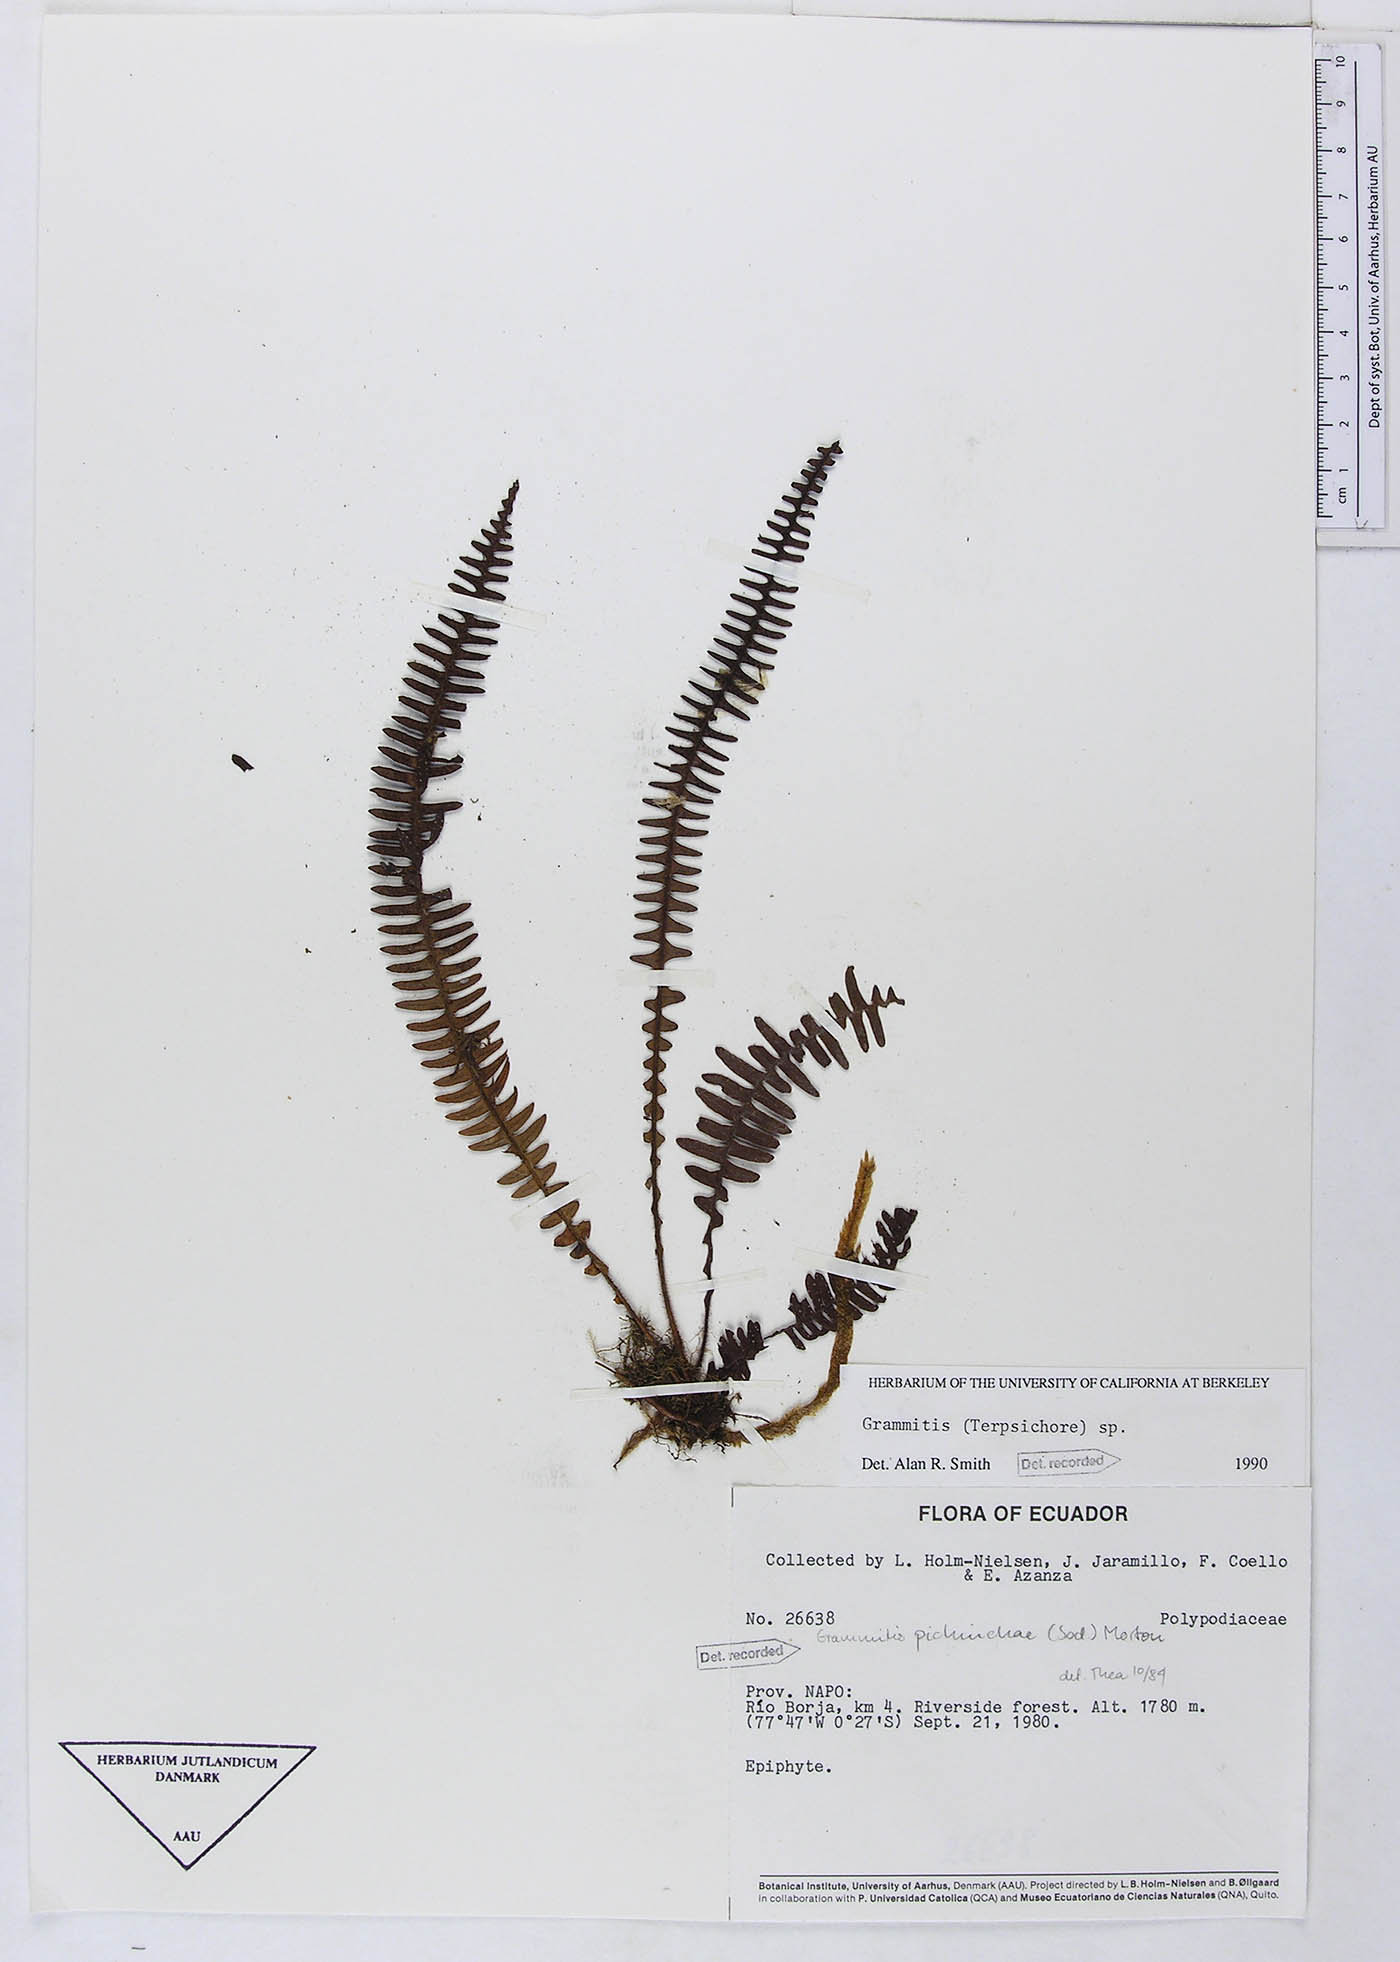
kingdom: Plantae
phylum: Tracheophyta
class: Polypodiopsida
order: Polypodiales
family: Polypodiaceae
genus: Ascogrammitis
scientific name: Ascogrammitis loxensis
